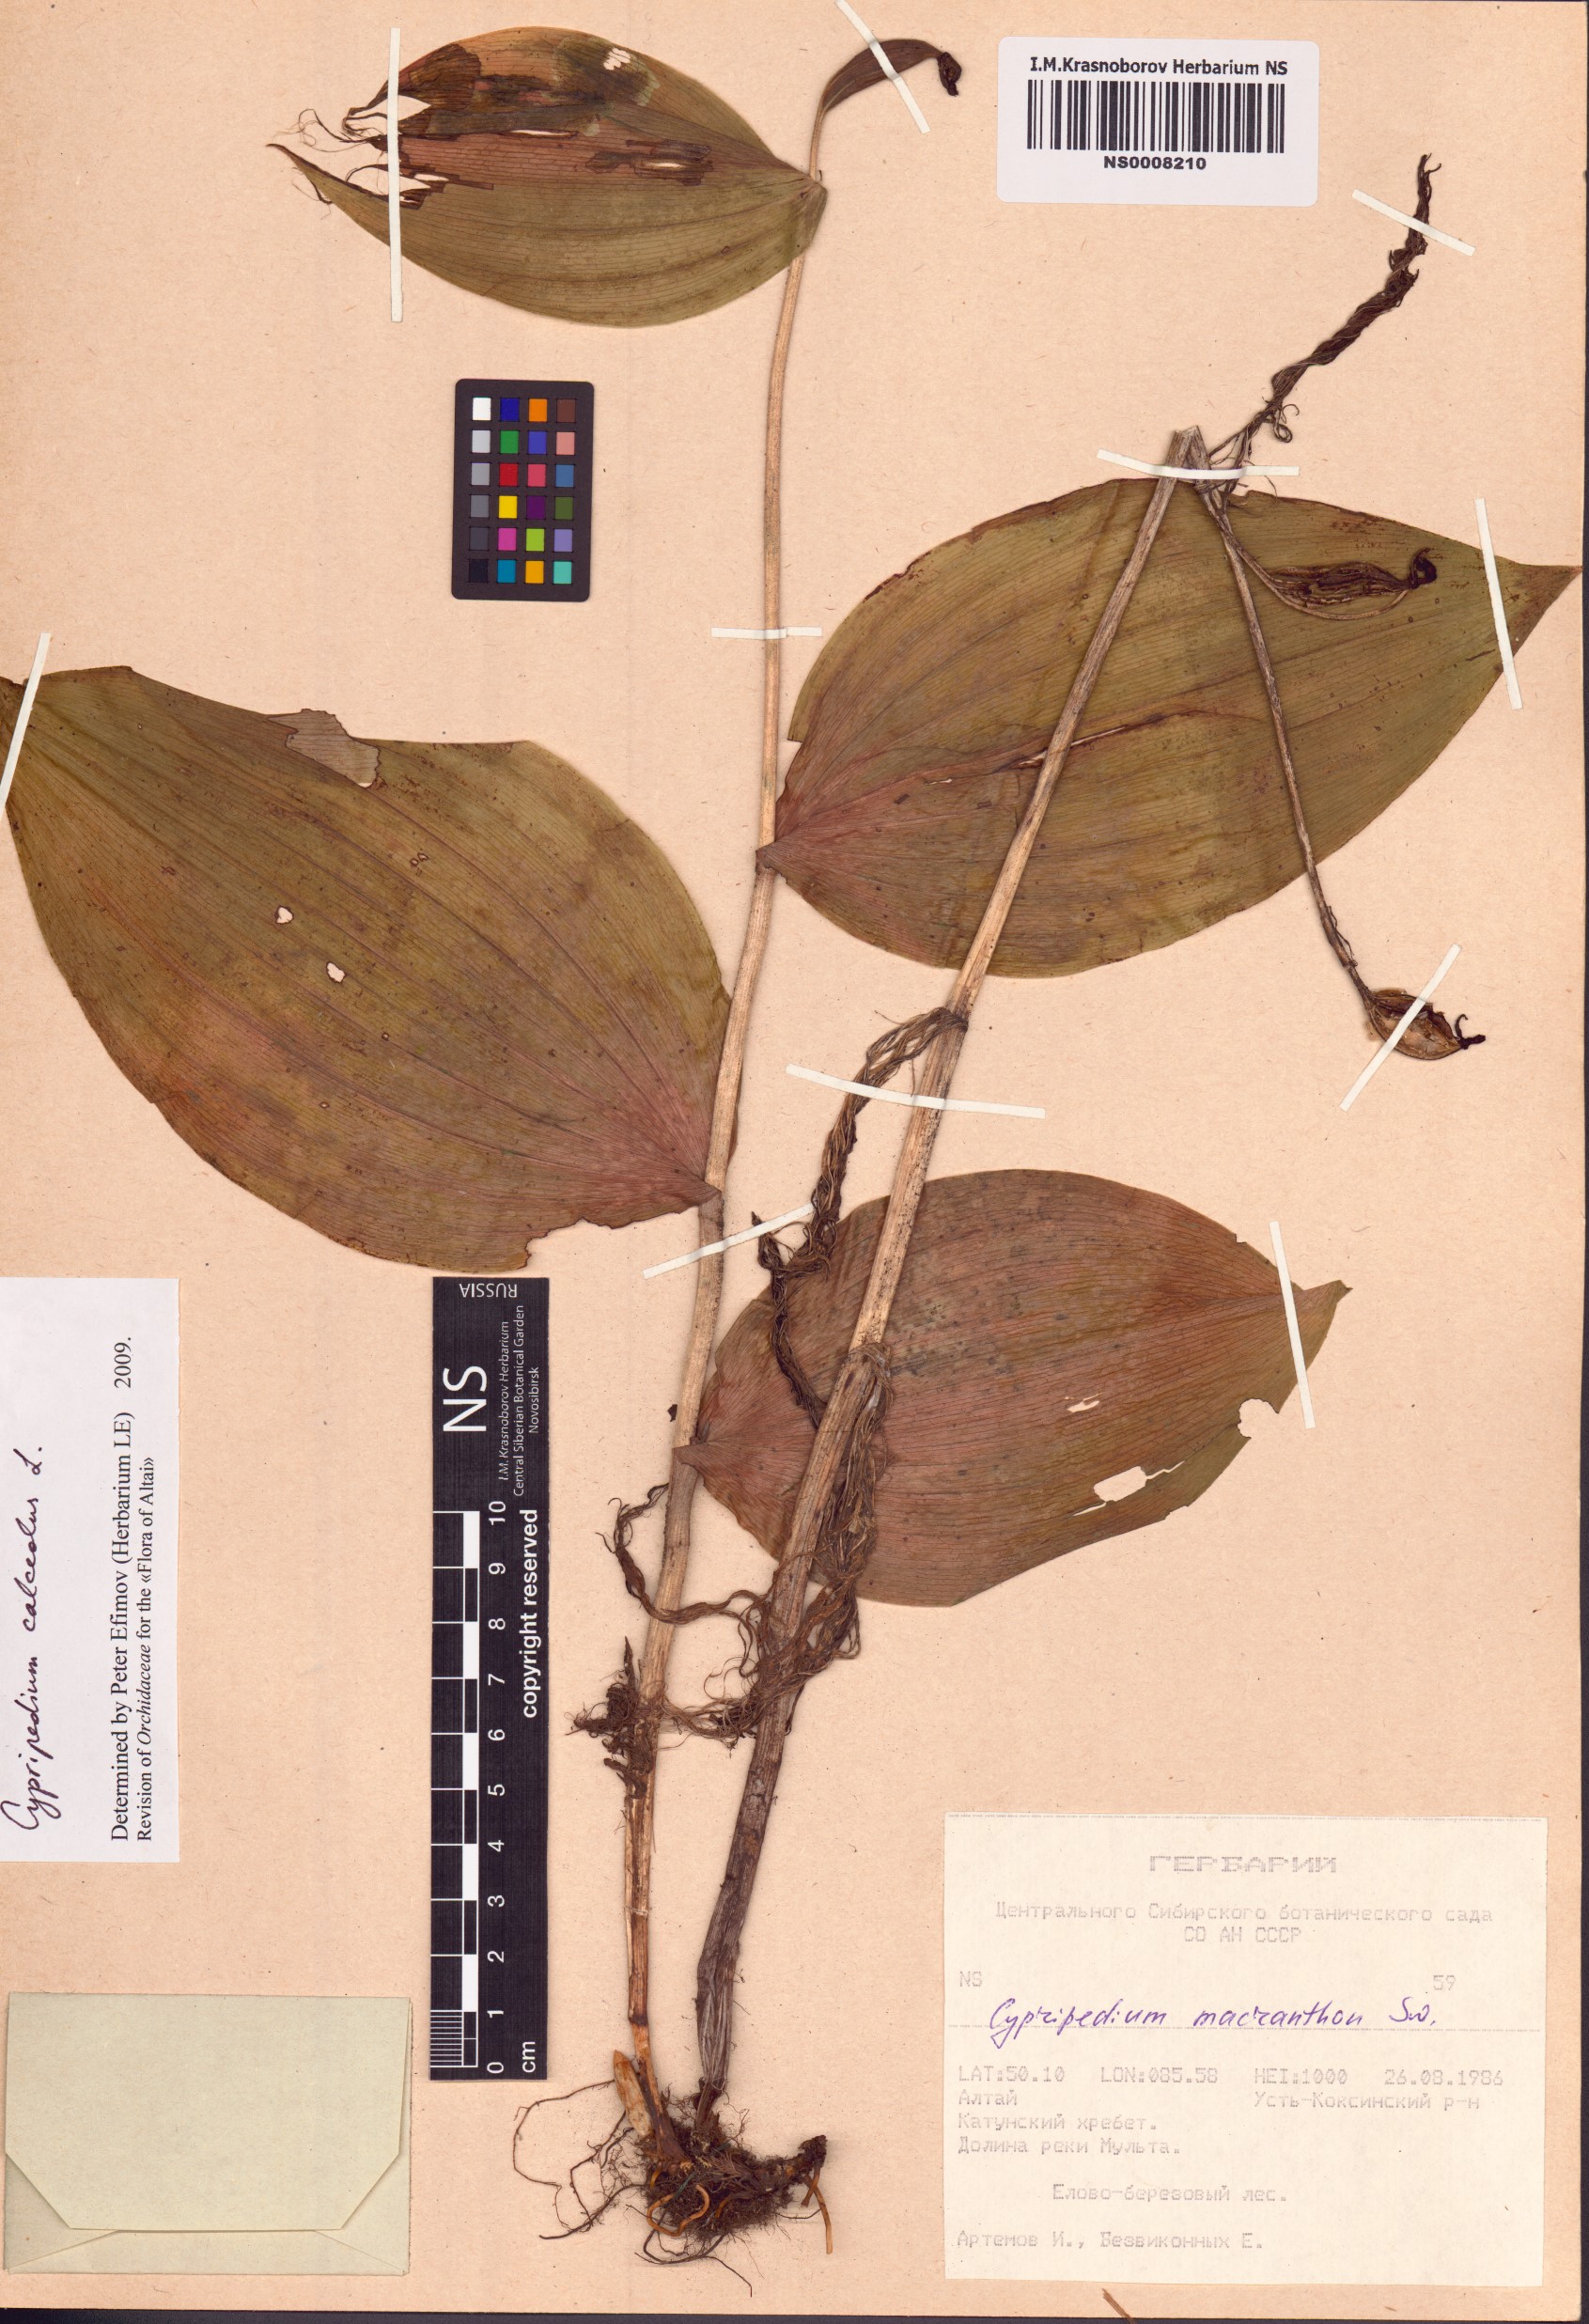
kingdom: Plantae
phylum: Tracheophyta
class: Liliopsida
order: Asparagales
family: Orchidaceae
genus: Cypripedium
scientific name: Cypripedium calceolus
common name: Lady's-slipper
